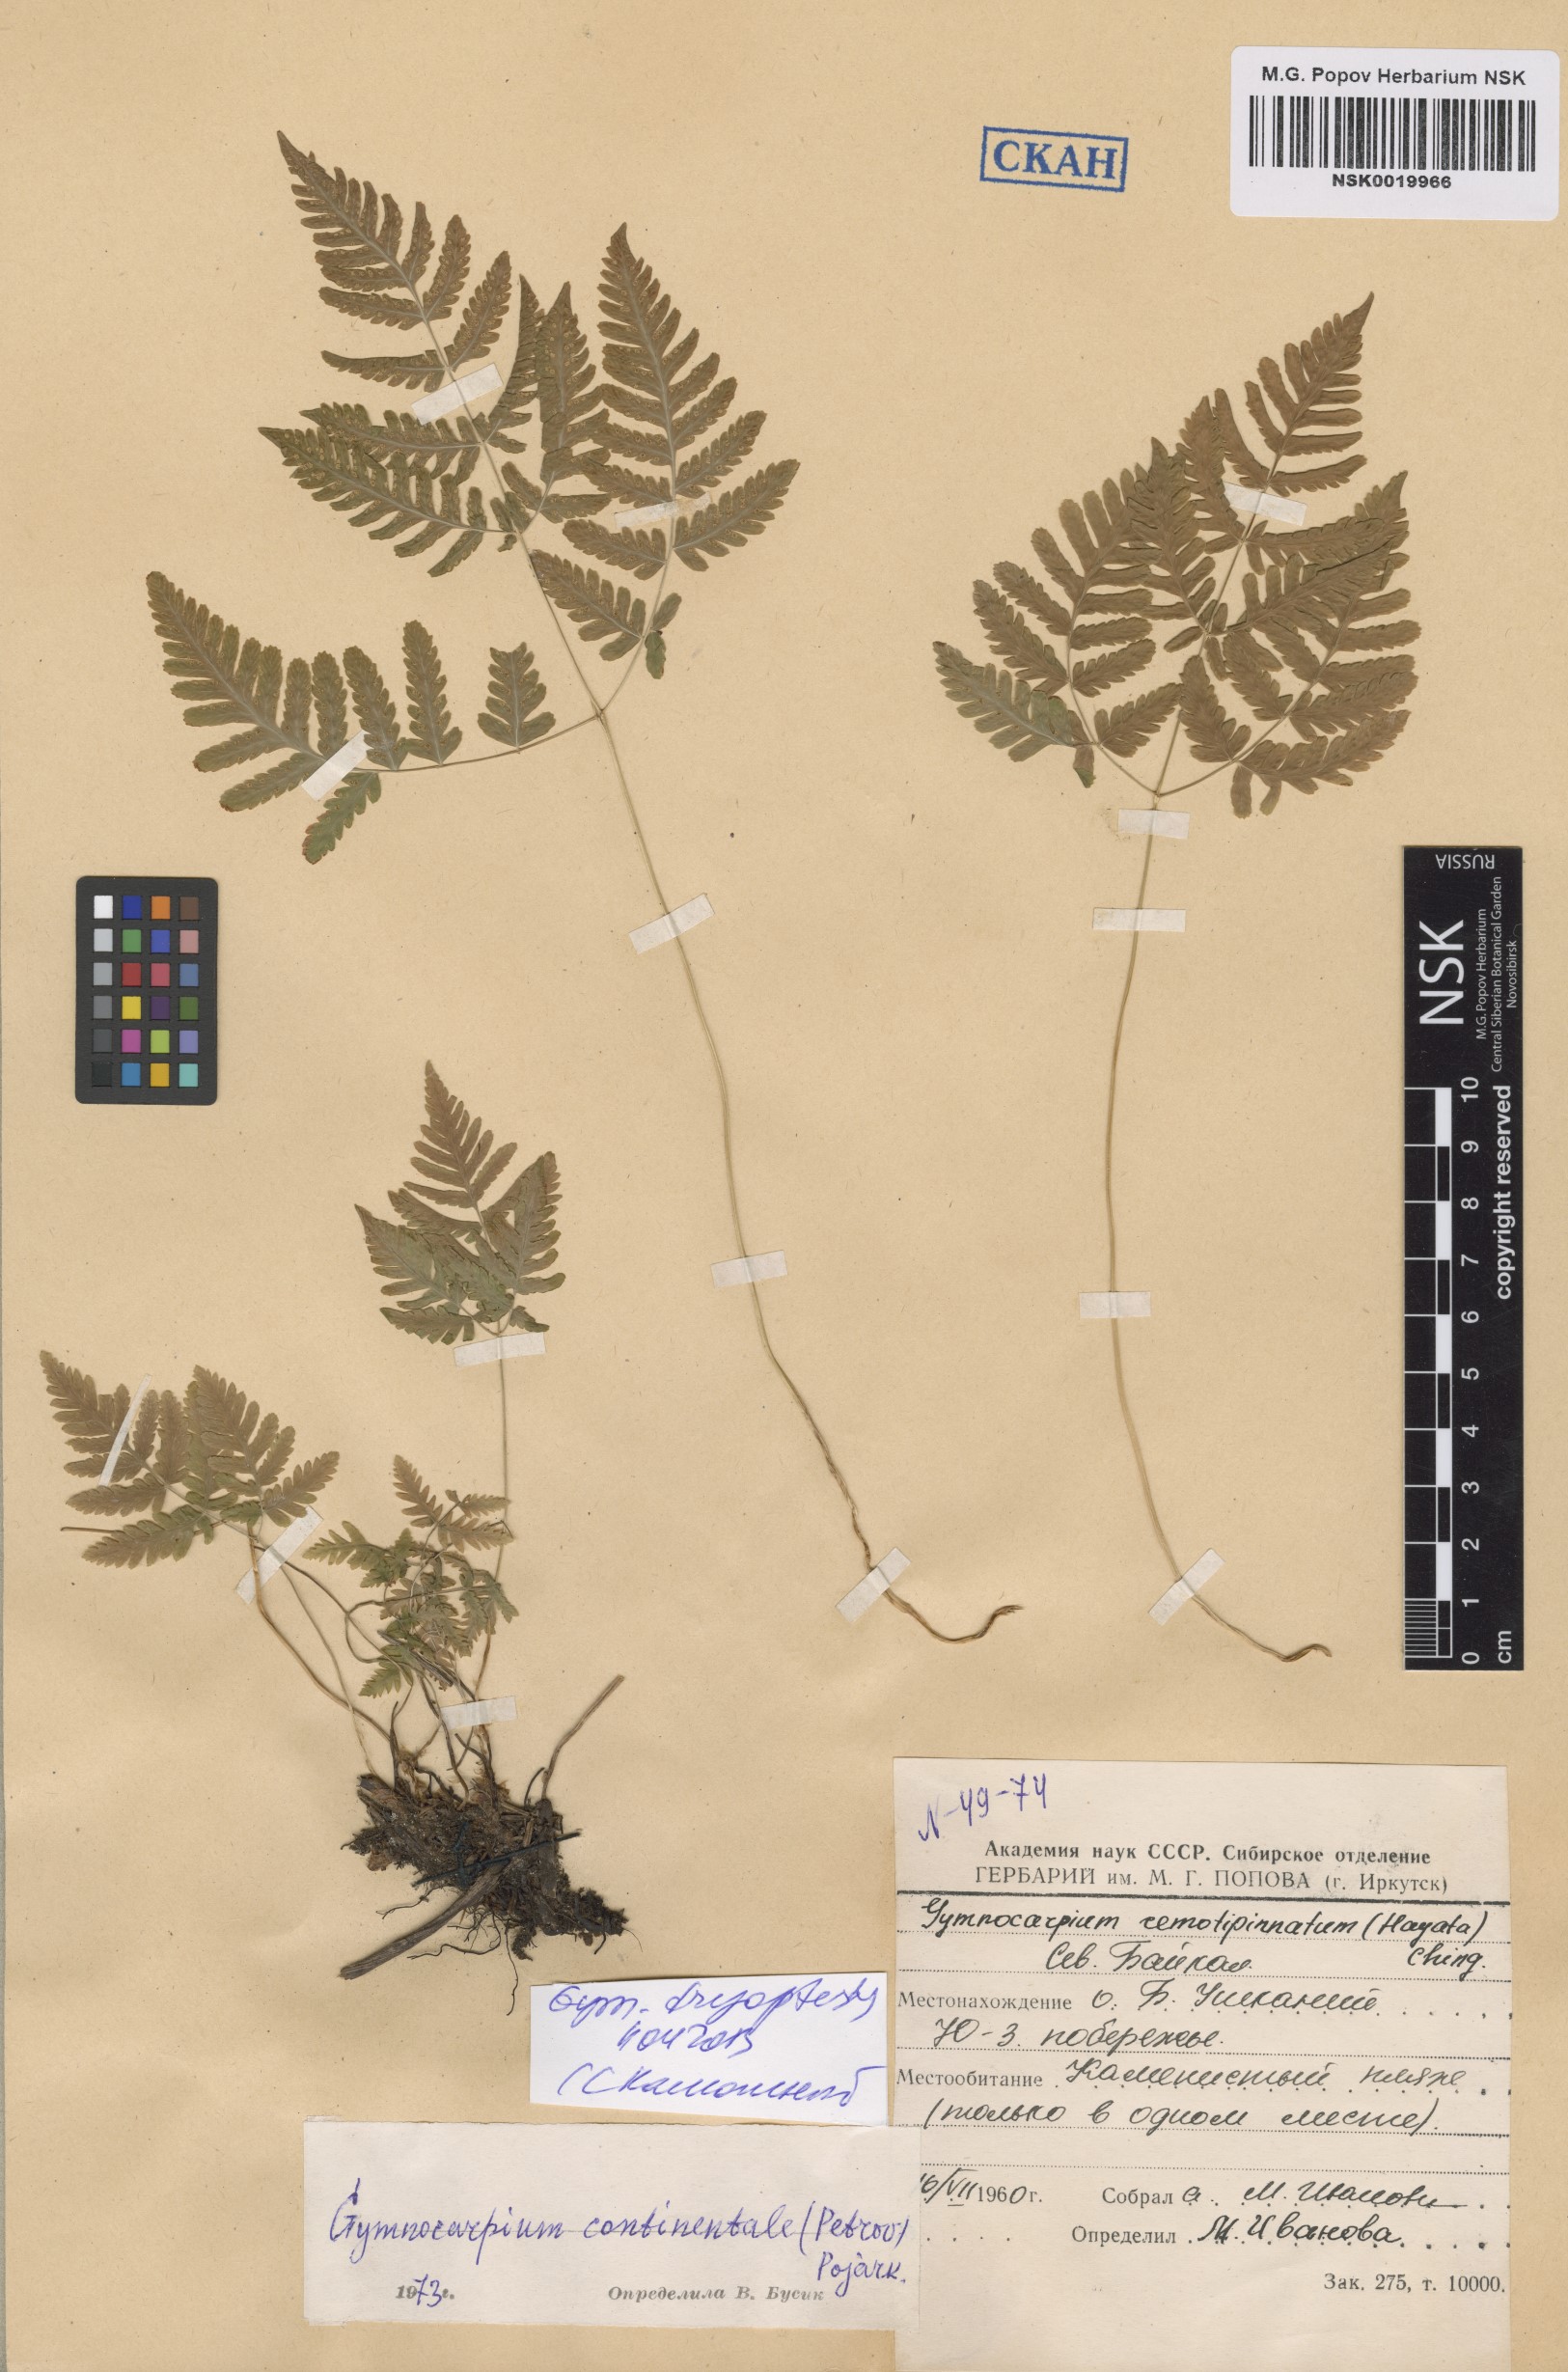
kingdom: Plantae
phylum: Tracheophyta
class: Polypodiopsida
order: Polypodiales
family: Cystopteridaceae
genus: Gymnocarpium
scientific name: Gymnocarpium dryopteris
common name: Oak fern
